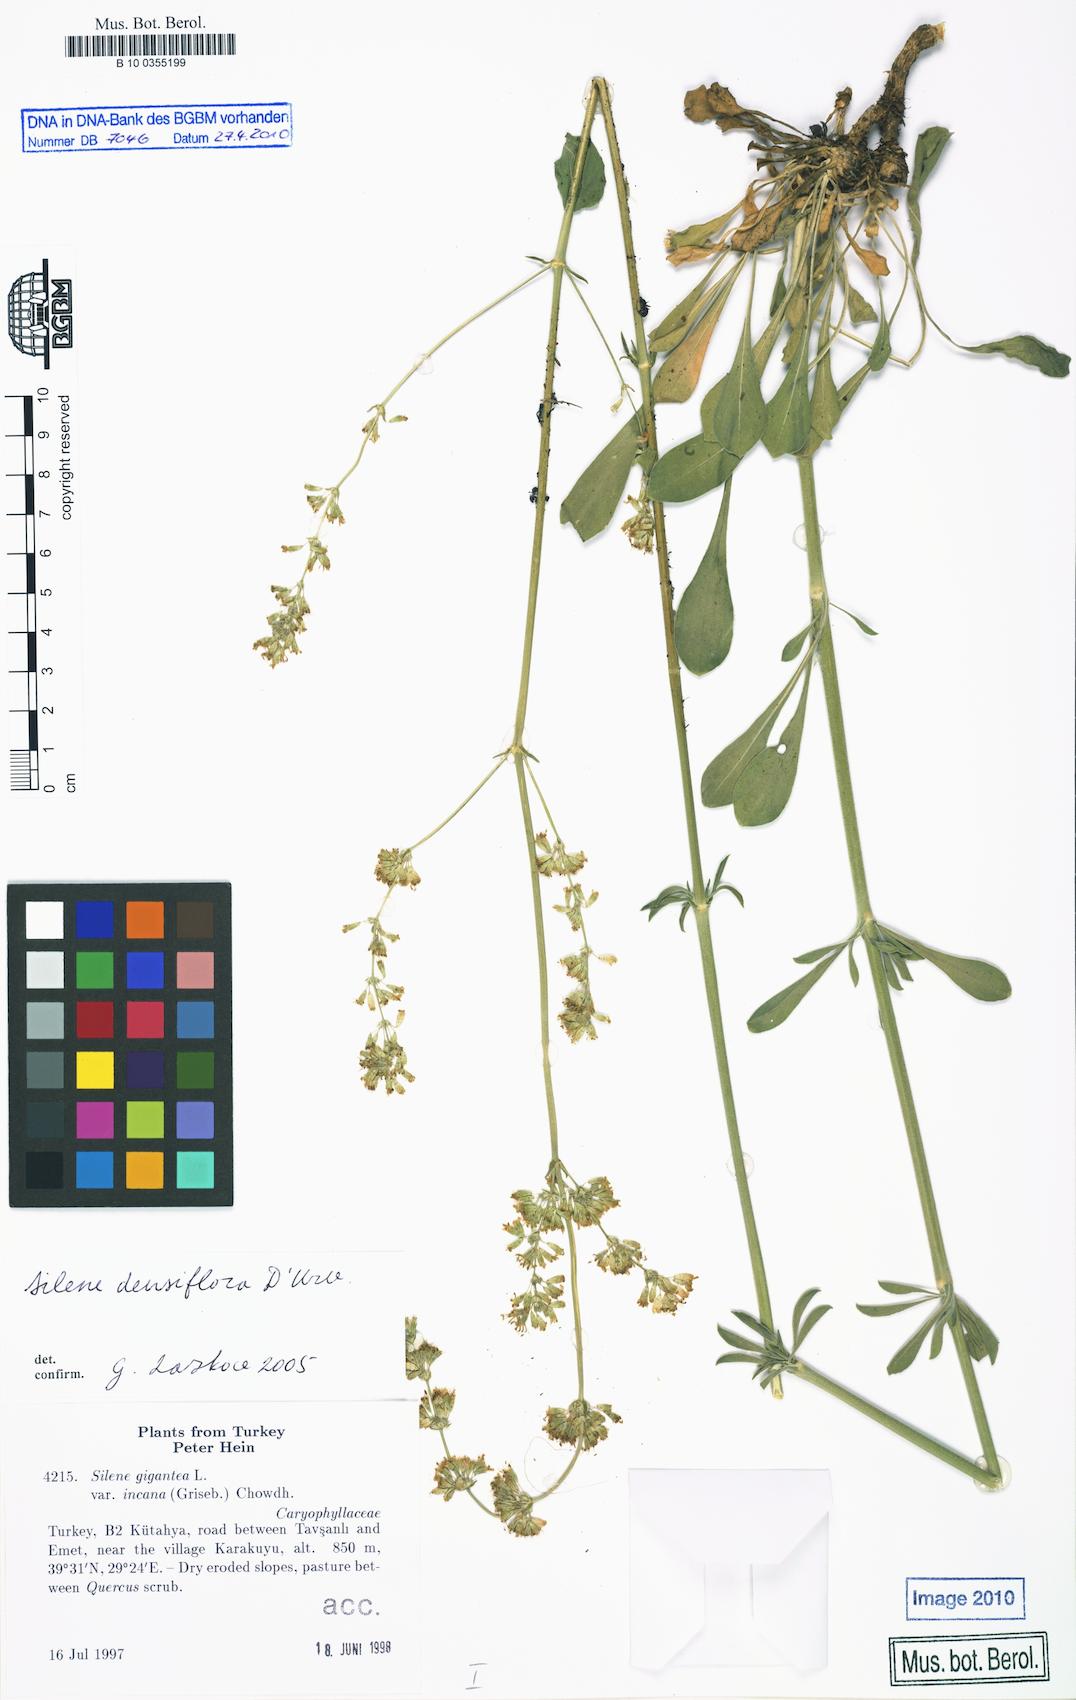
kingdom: Plantae
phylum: Tracheophyta
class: Magnoliopsida
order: Caryophyllales
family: Caryophyllaceae
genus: Silene
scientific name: Silene densiflora
